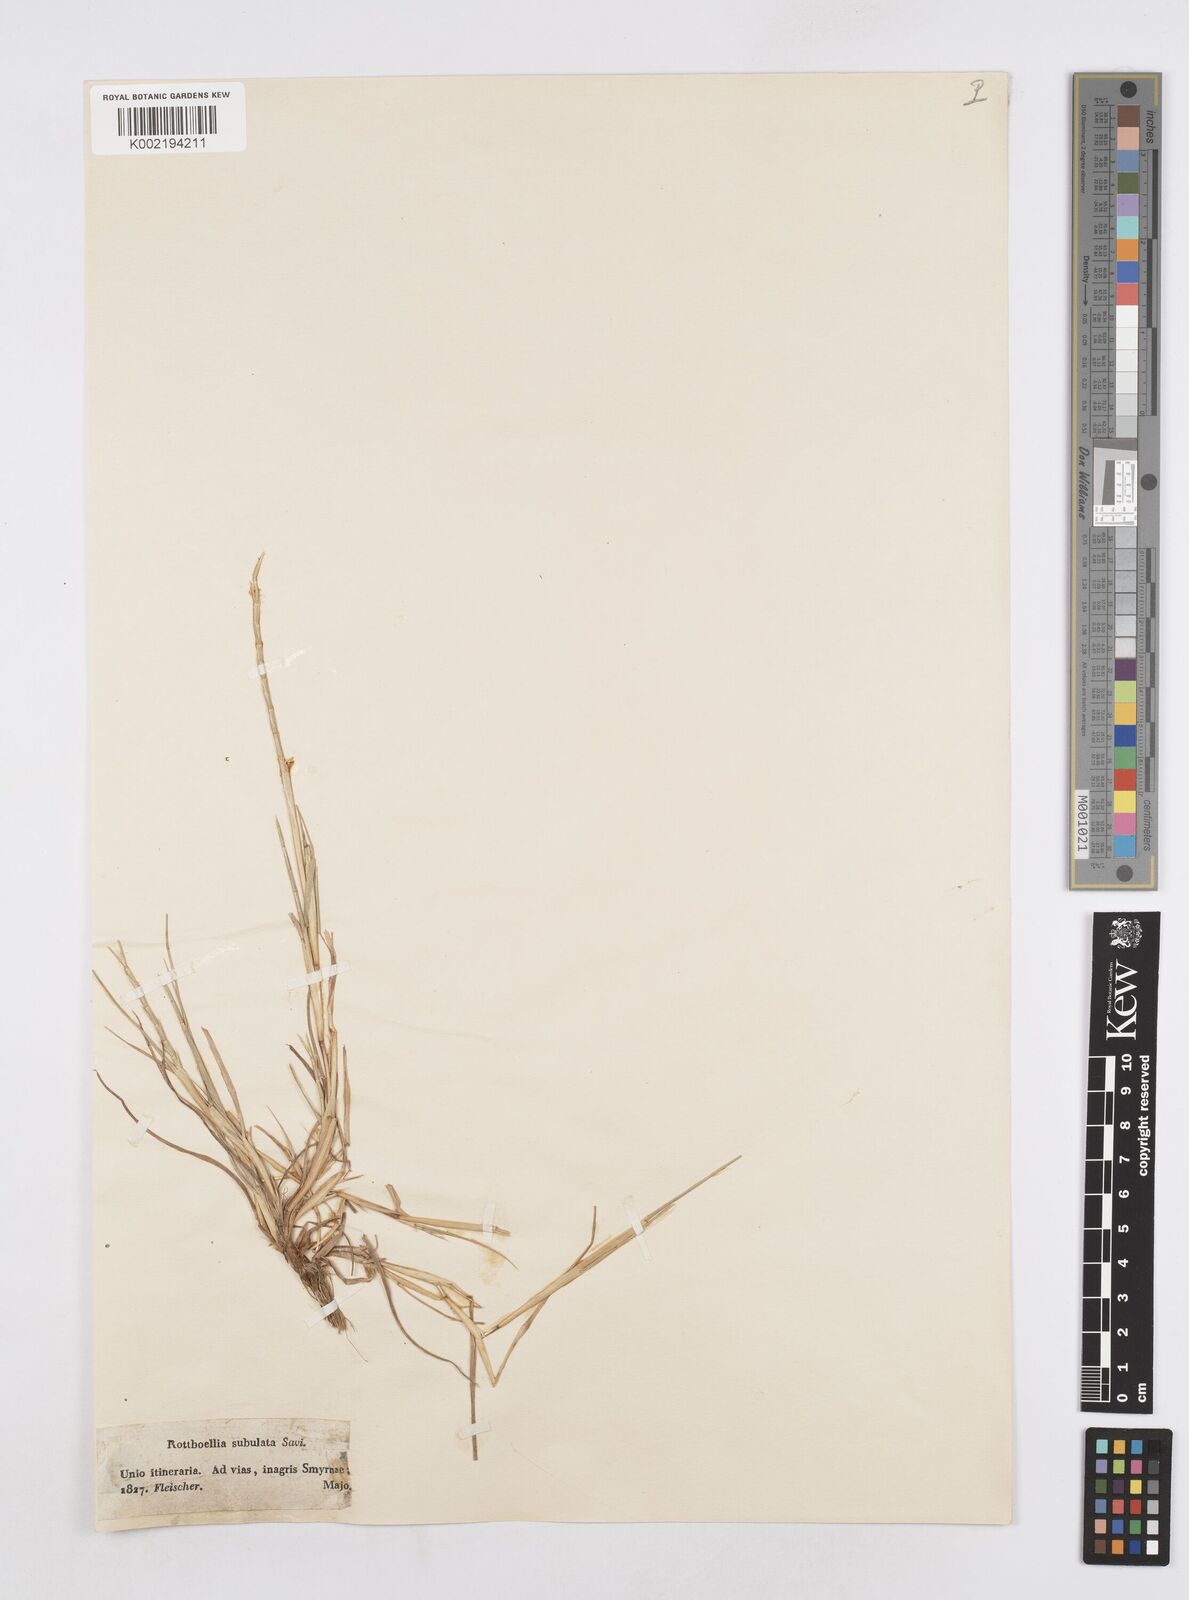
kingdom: Plantae
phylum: Tracheophyta
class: Liliopsida
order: Poales
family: Poaceae
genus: Parapholis
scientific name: Parapholis cylindrica
